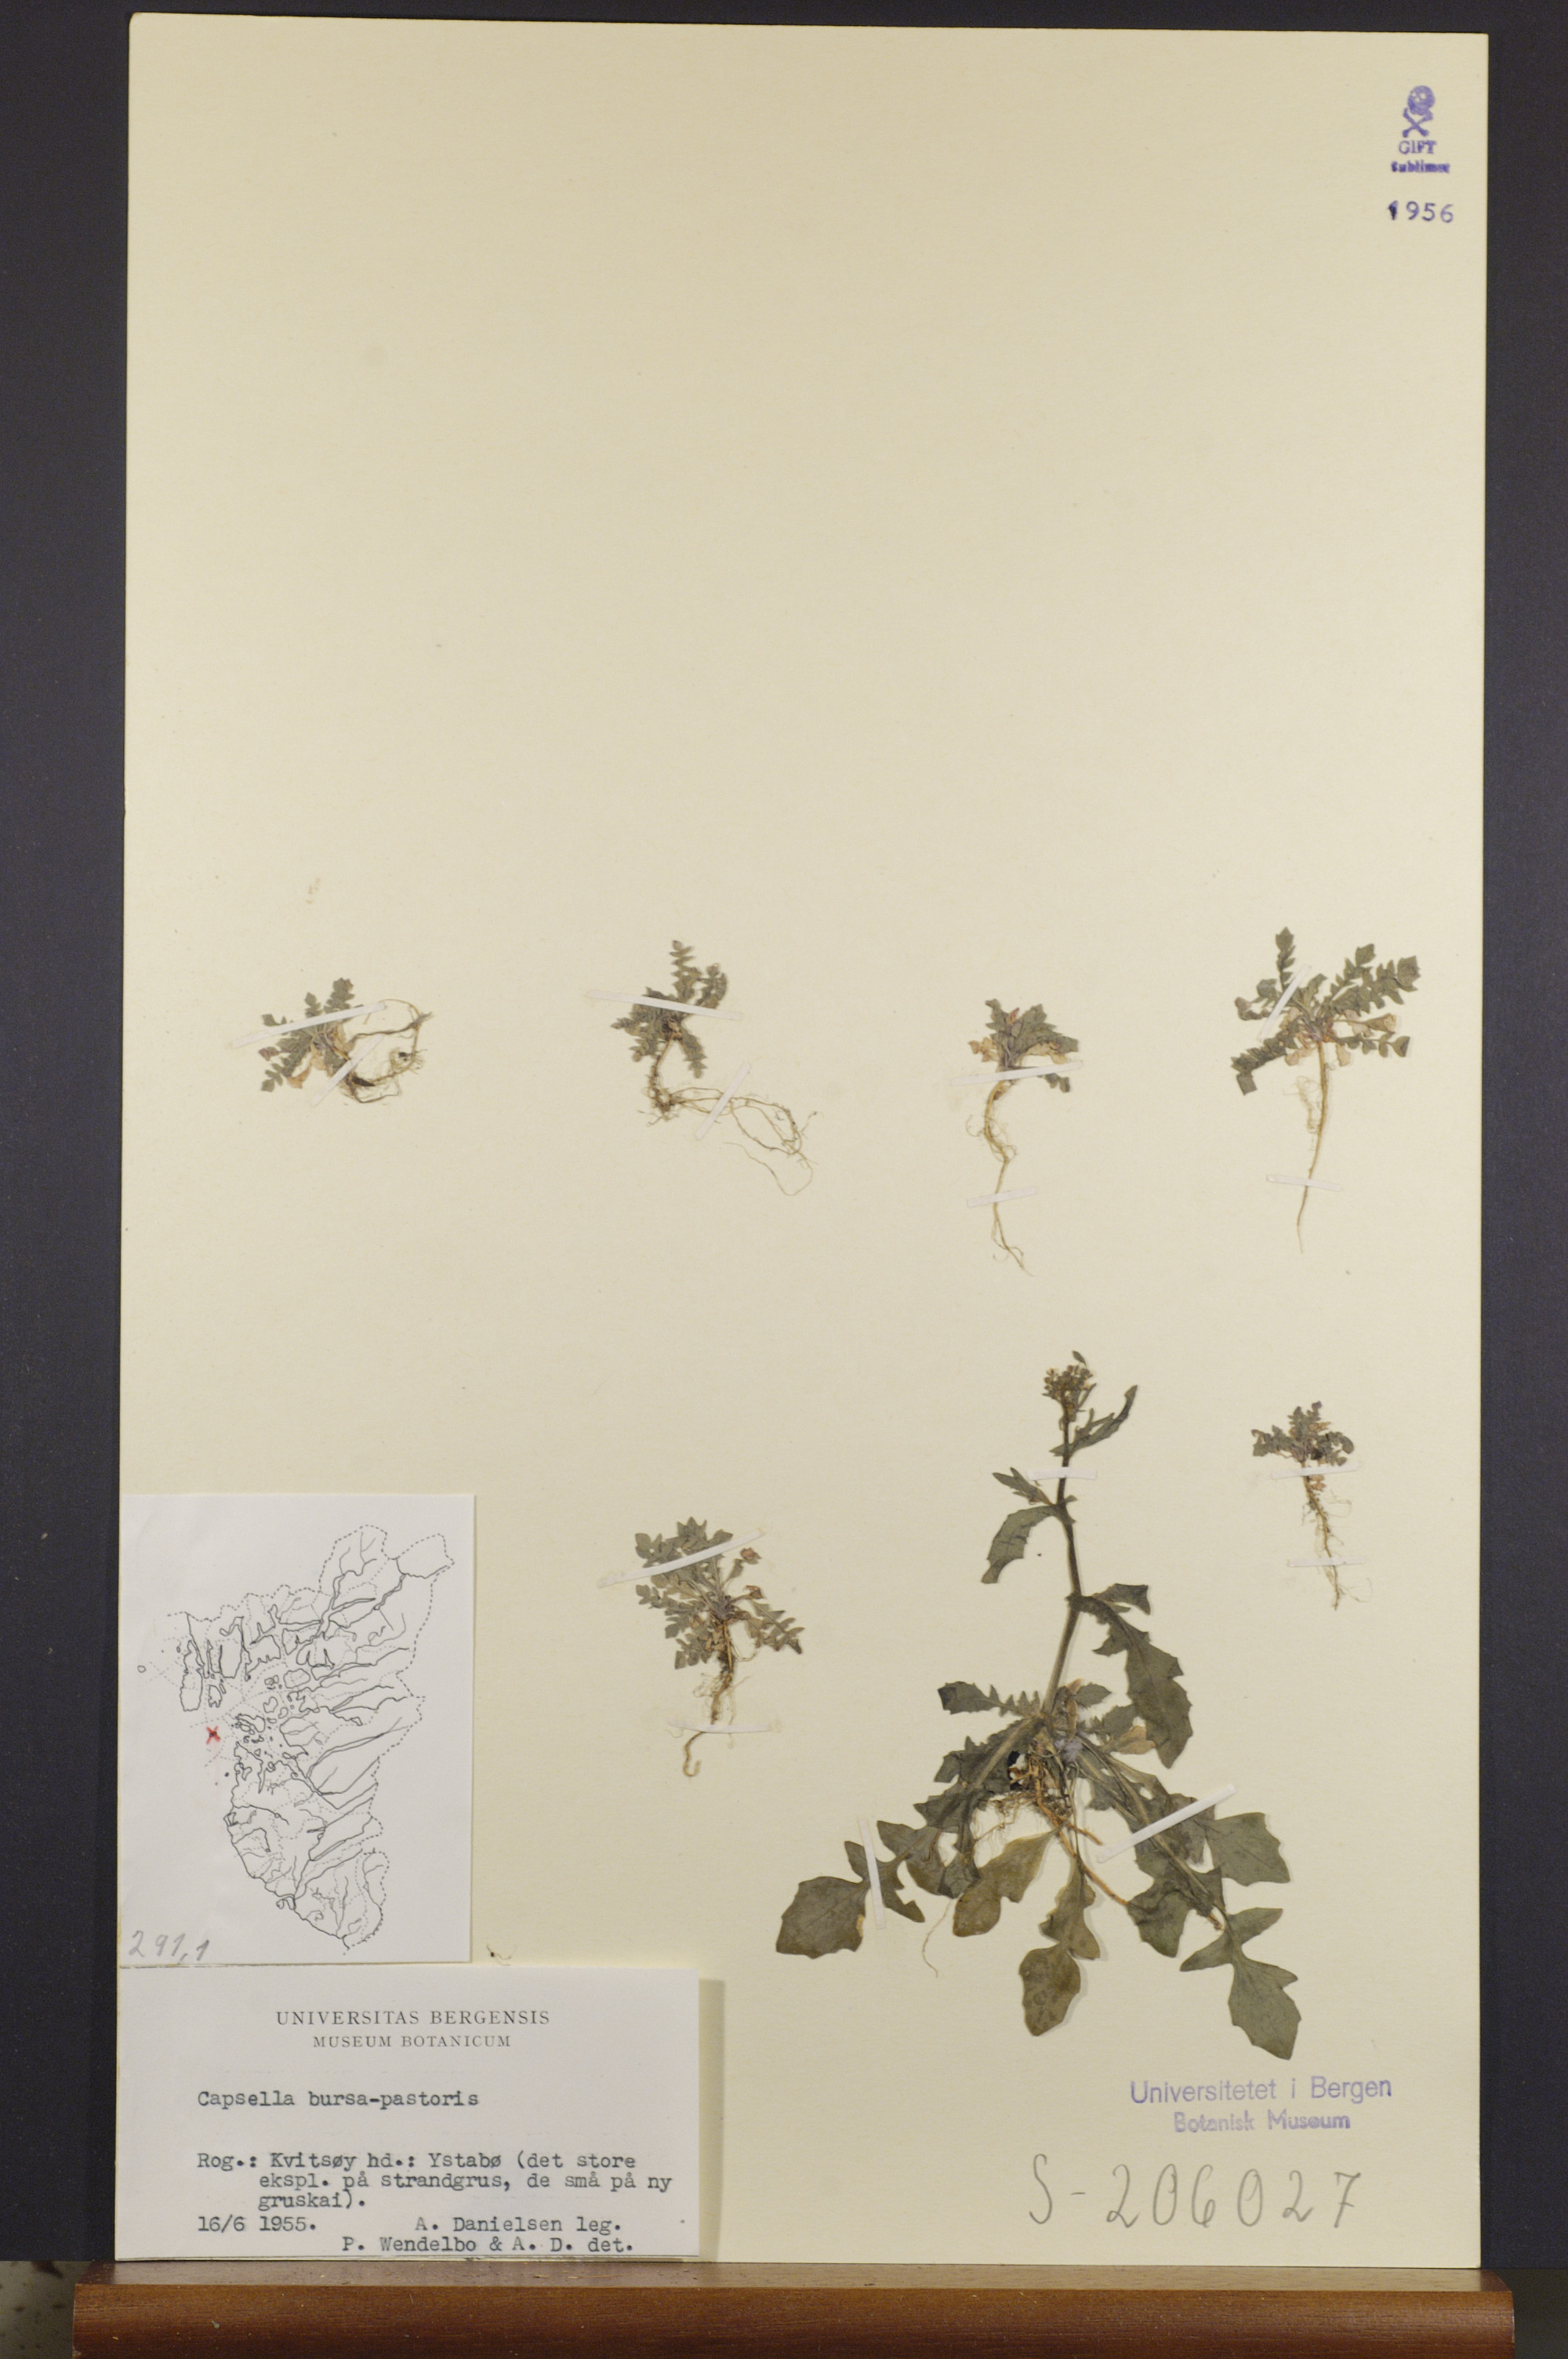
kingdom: Plantae
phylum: Tracheophyta
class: Magnoliopsida
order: Brassicales
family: Brassicaceae
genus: Capsella
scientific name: Capsella bursa-pastoris
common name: Shepherd's purse
